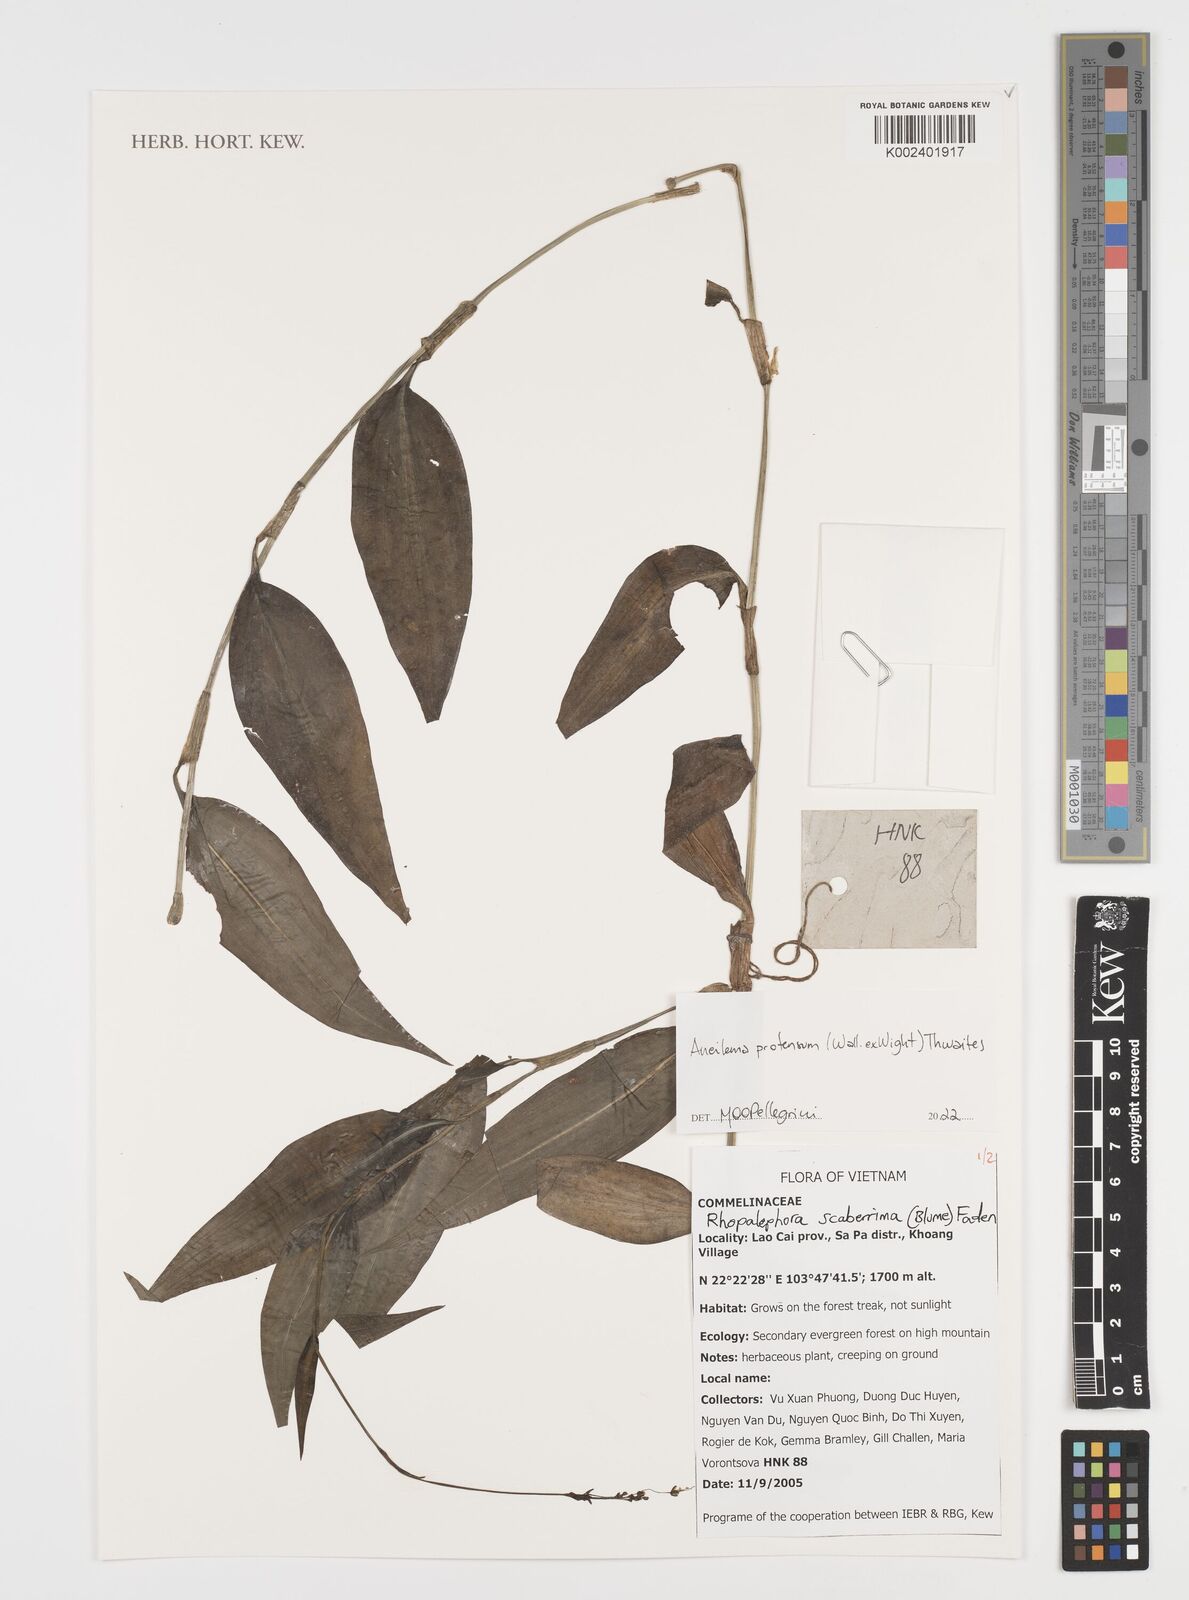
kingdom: Plantae
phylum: Tracheophyta
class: Liliopsida
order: Commelinales
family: Commelinaceae
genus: Rhopalephora
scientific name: Rhopalephora
